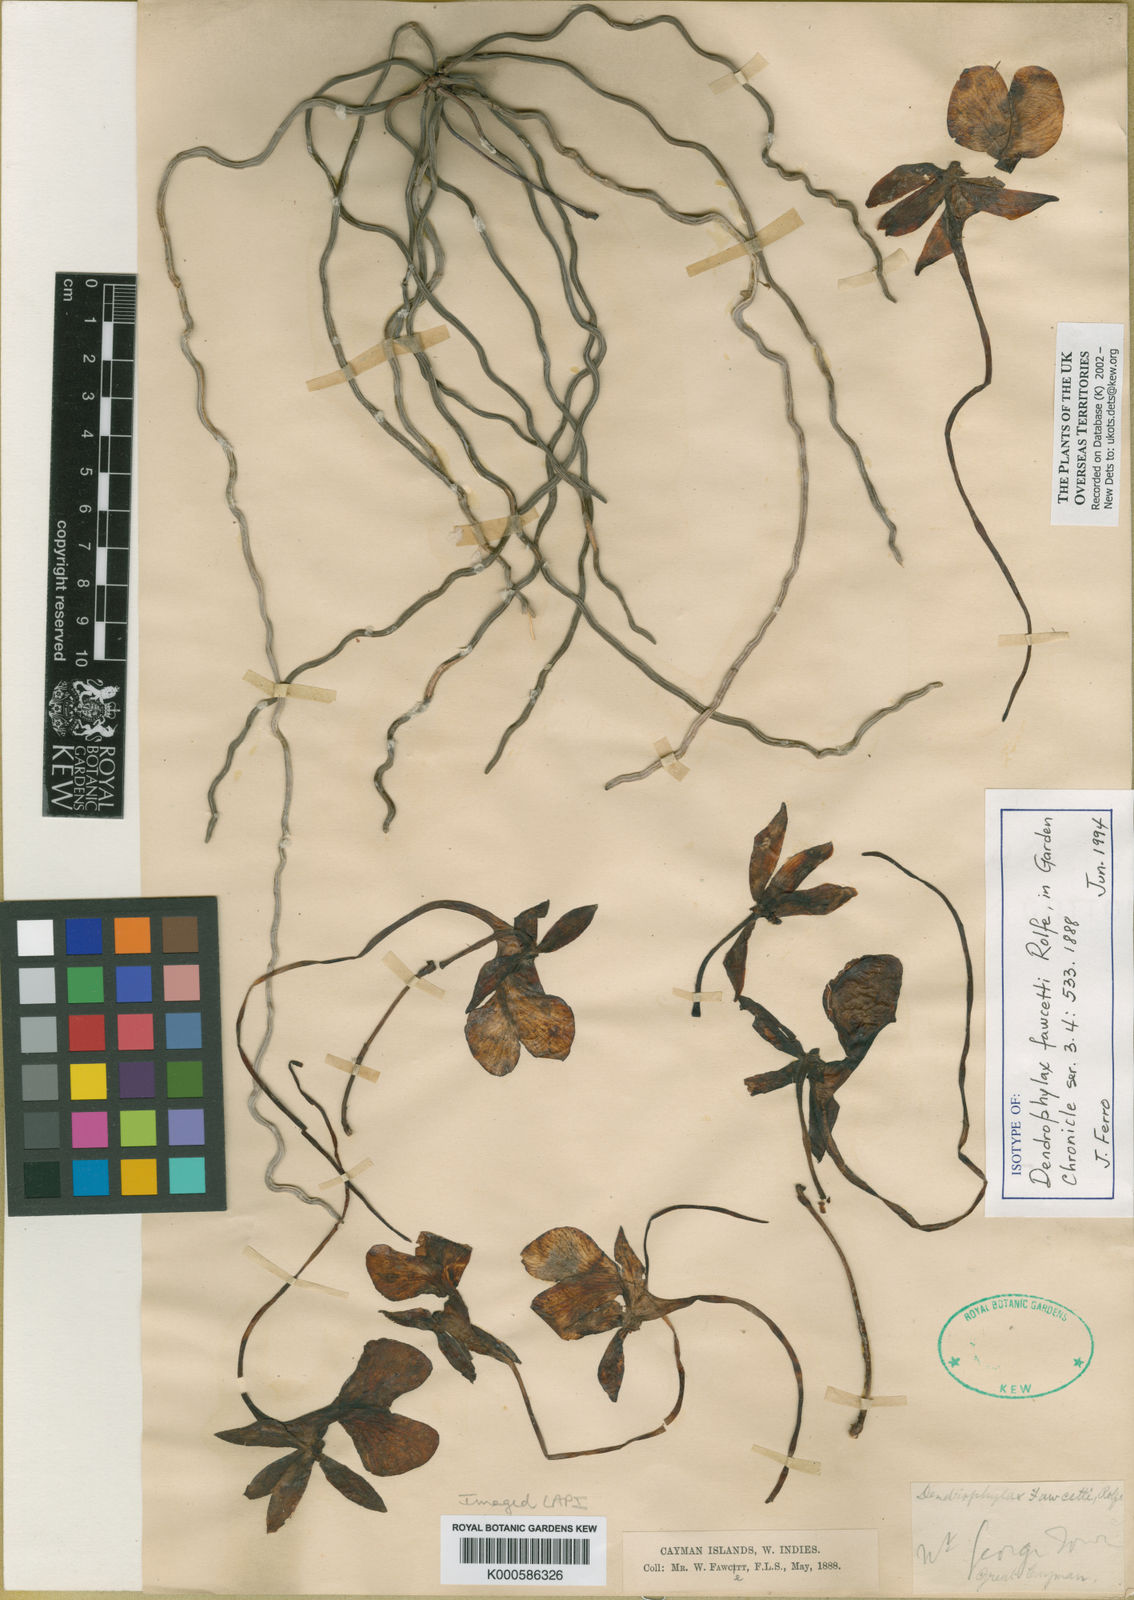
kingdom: Plantae
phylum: Tracheophyta
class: Liliopsida
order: Asparagales
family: Orchidaceae
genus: Dendrophylax
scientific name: Dendrophylax fawcettii
